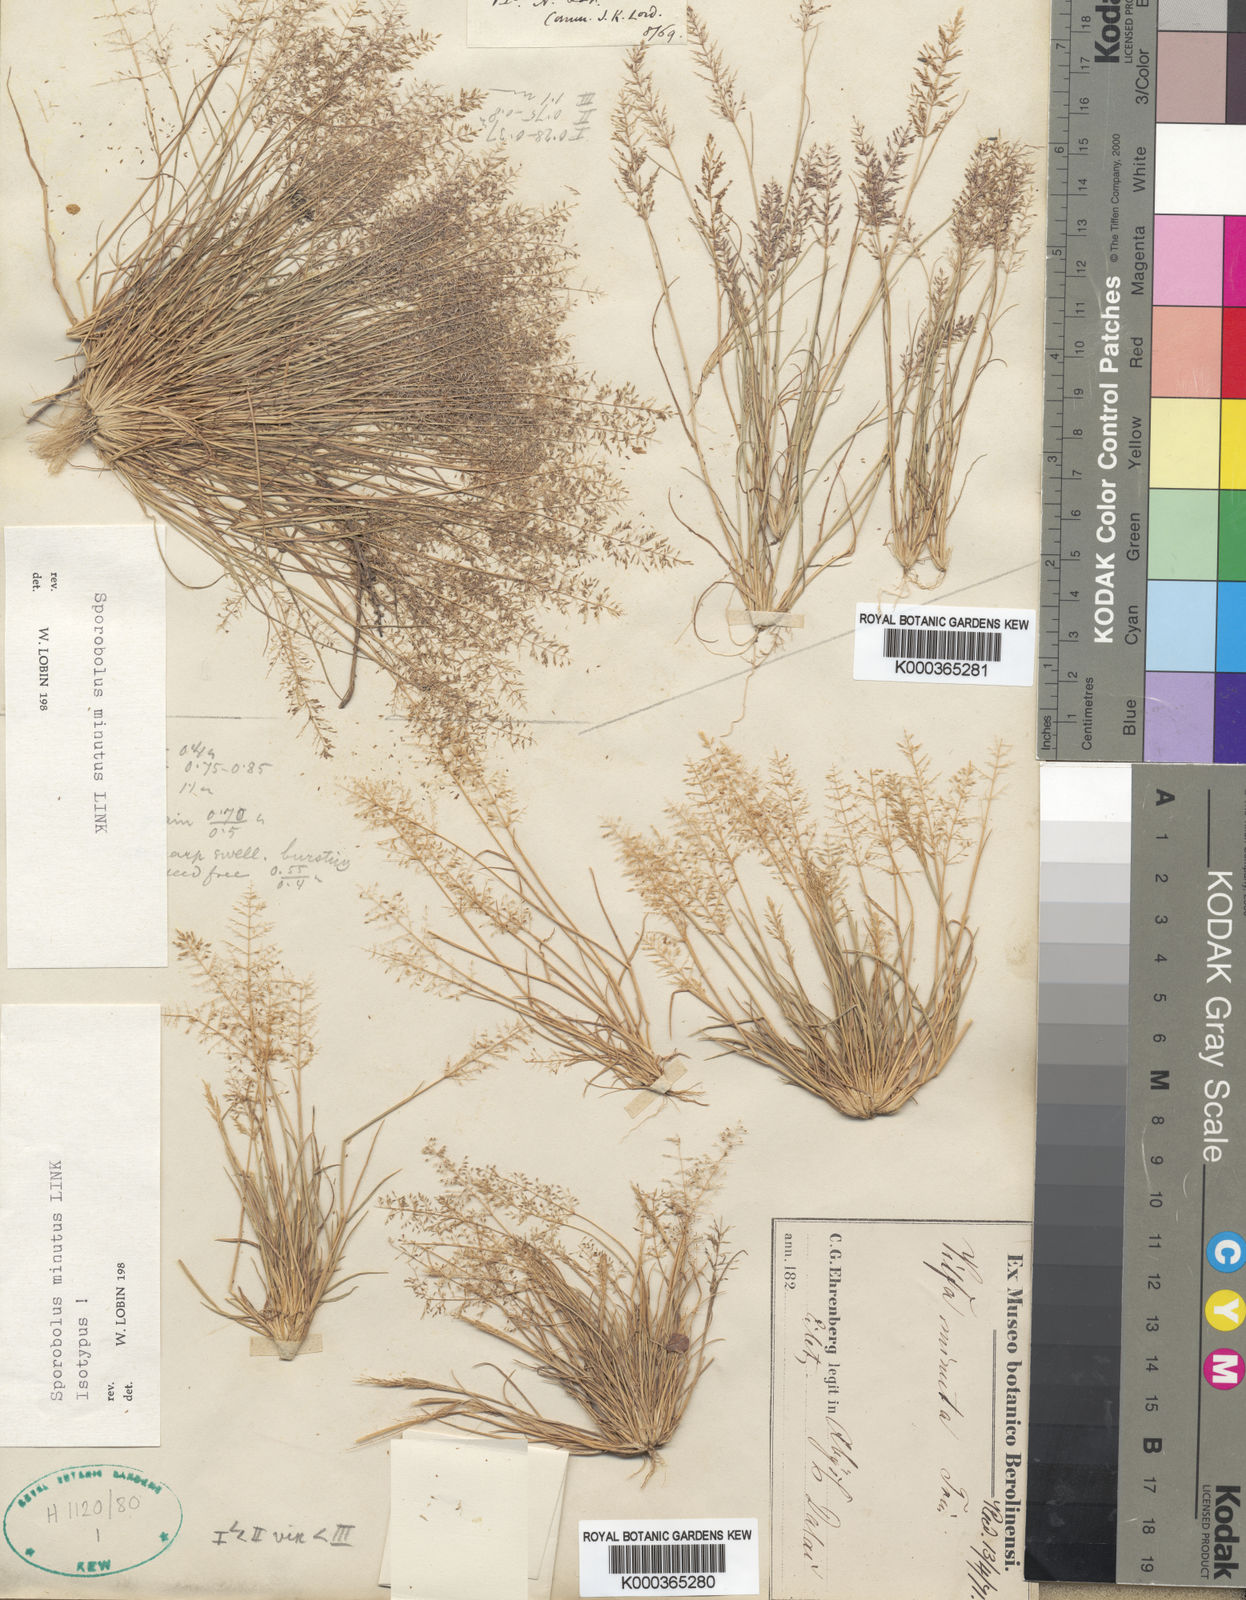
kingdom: Plantae
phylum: Tracheophyta
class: Liliopsida
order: Poales
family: Poaceae
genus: Sporobolus
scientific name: Sporobolus minutus
